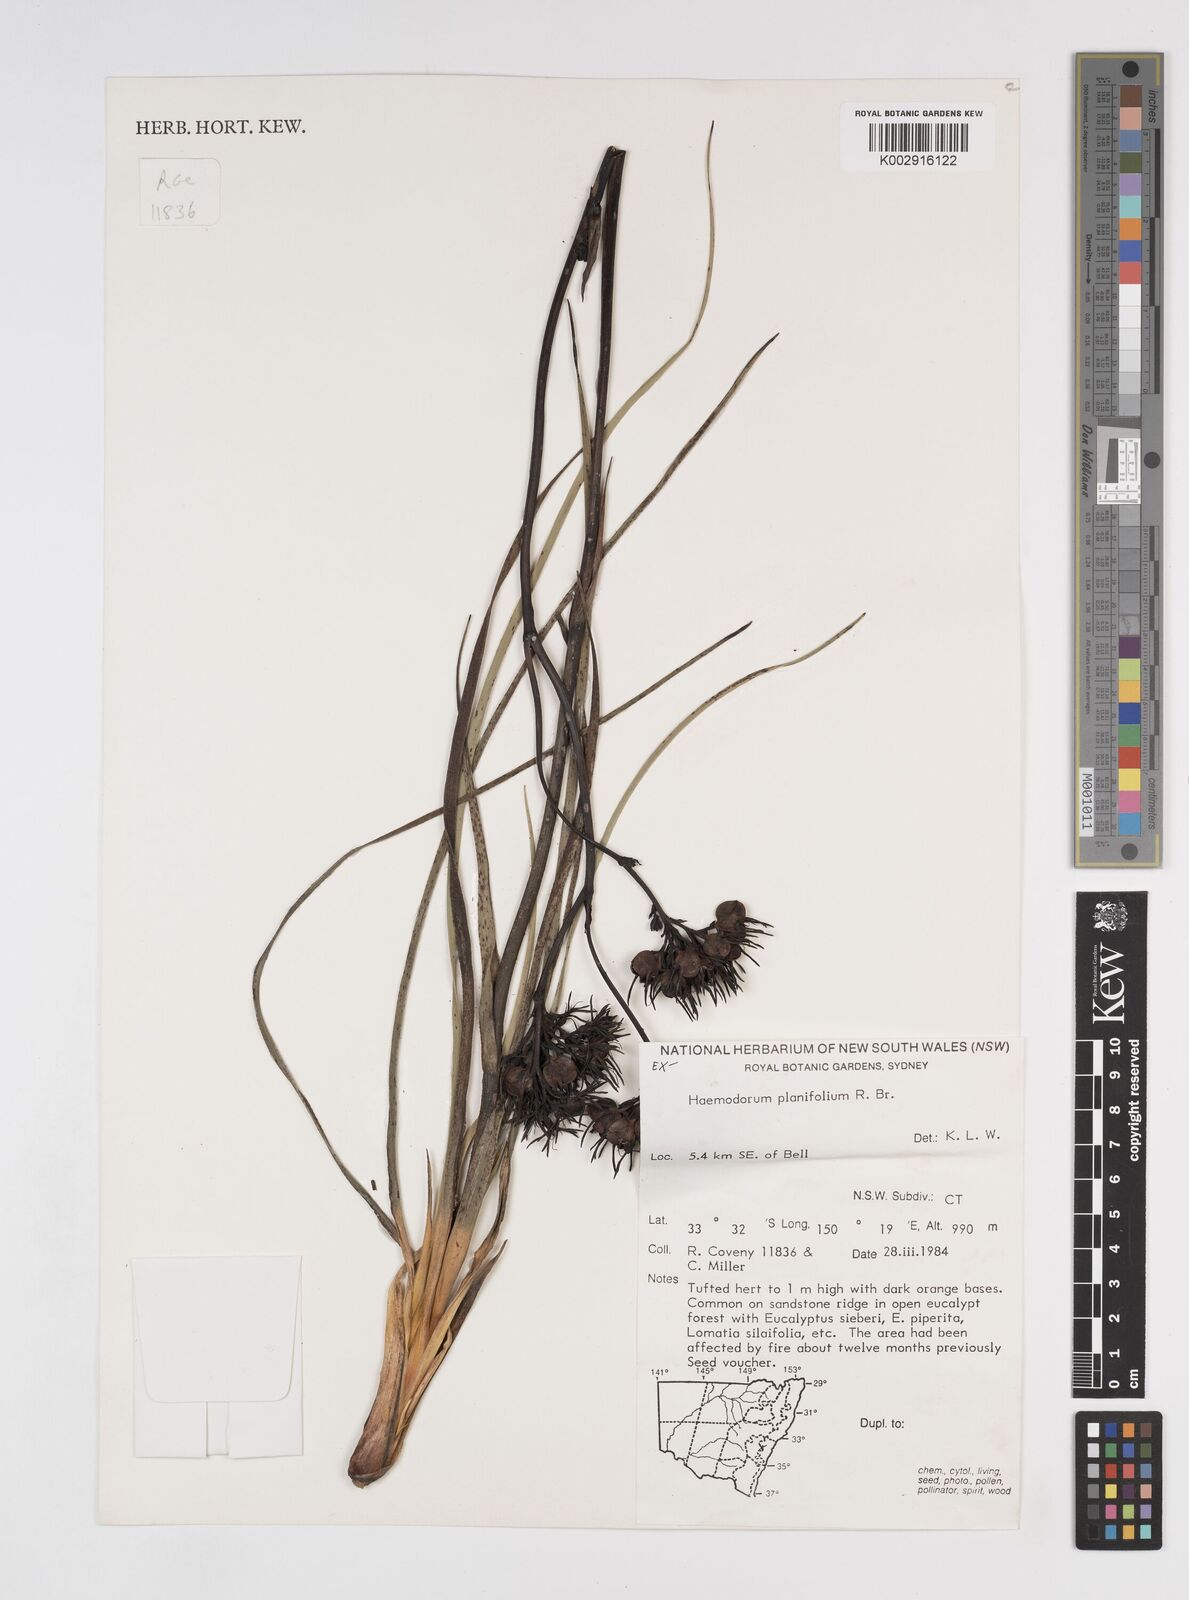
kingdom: Plantae
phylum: Tracheophyta
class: Liliopsida
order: Commelinales
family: Haemodoraceae
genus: Haemodorum
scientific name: Haemodorum planifolium
